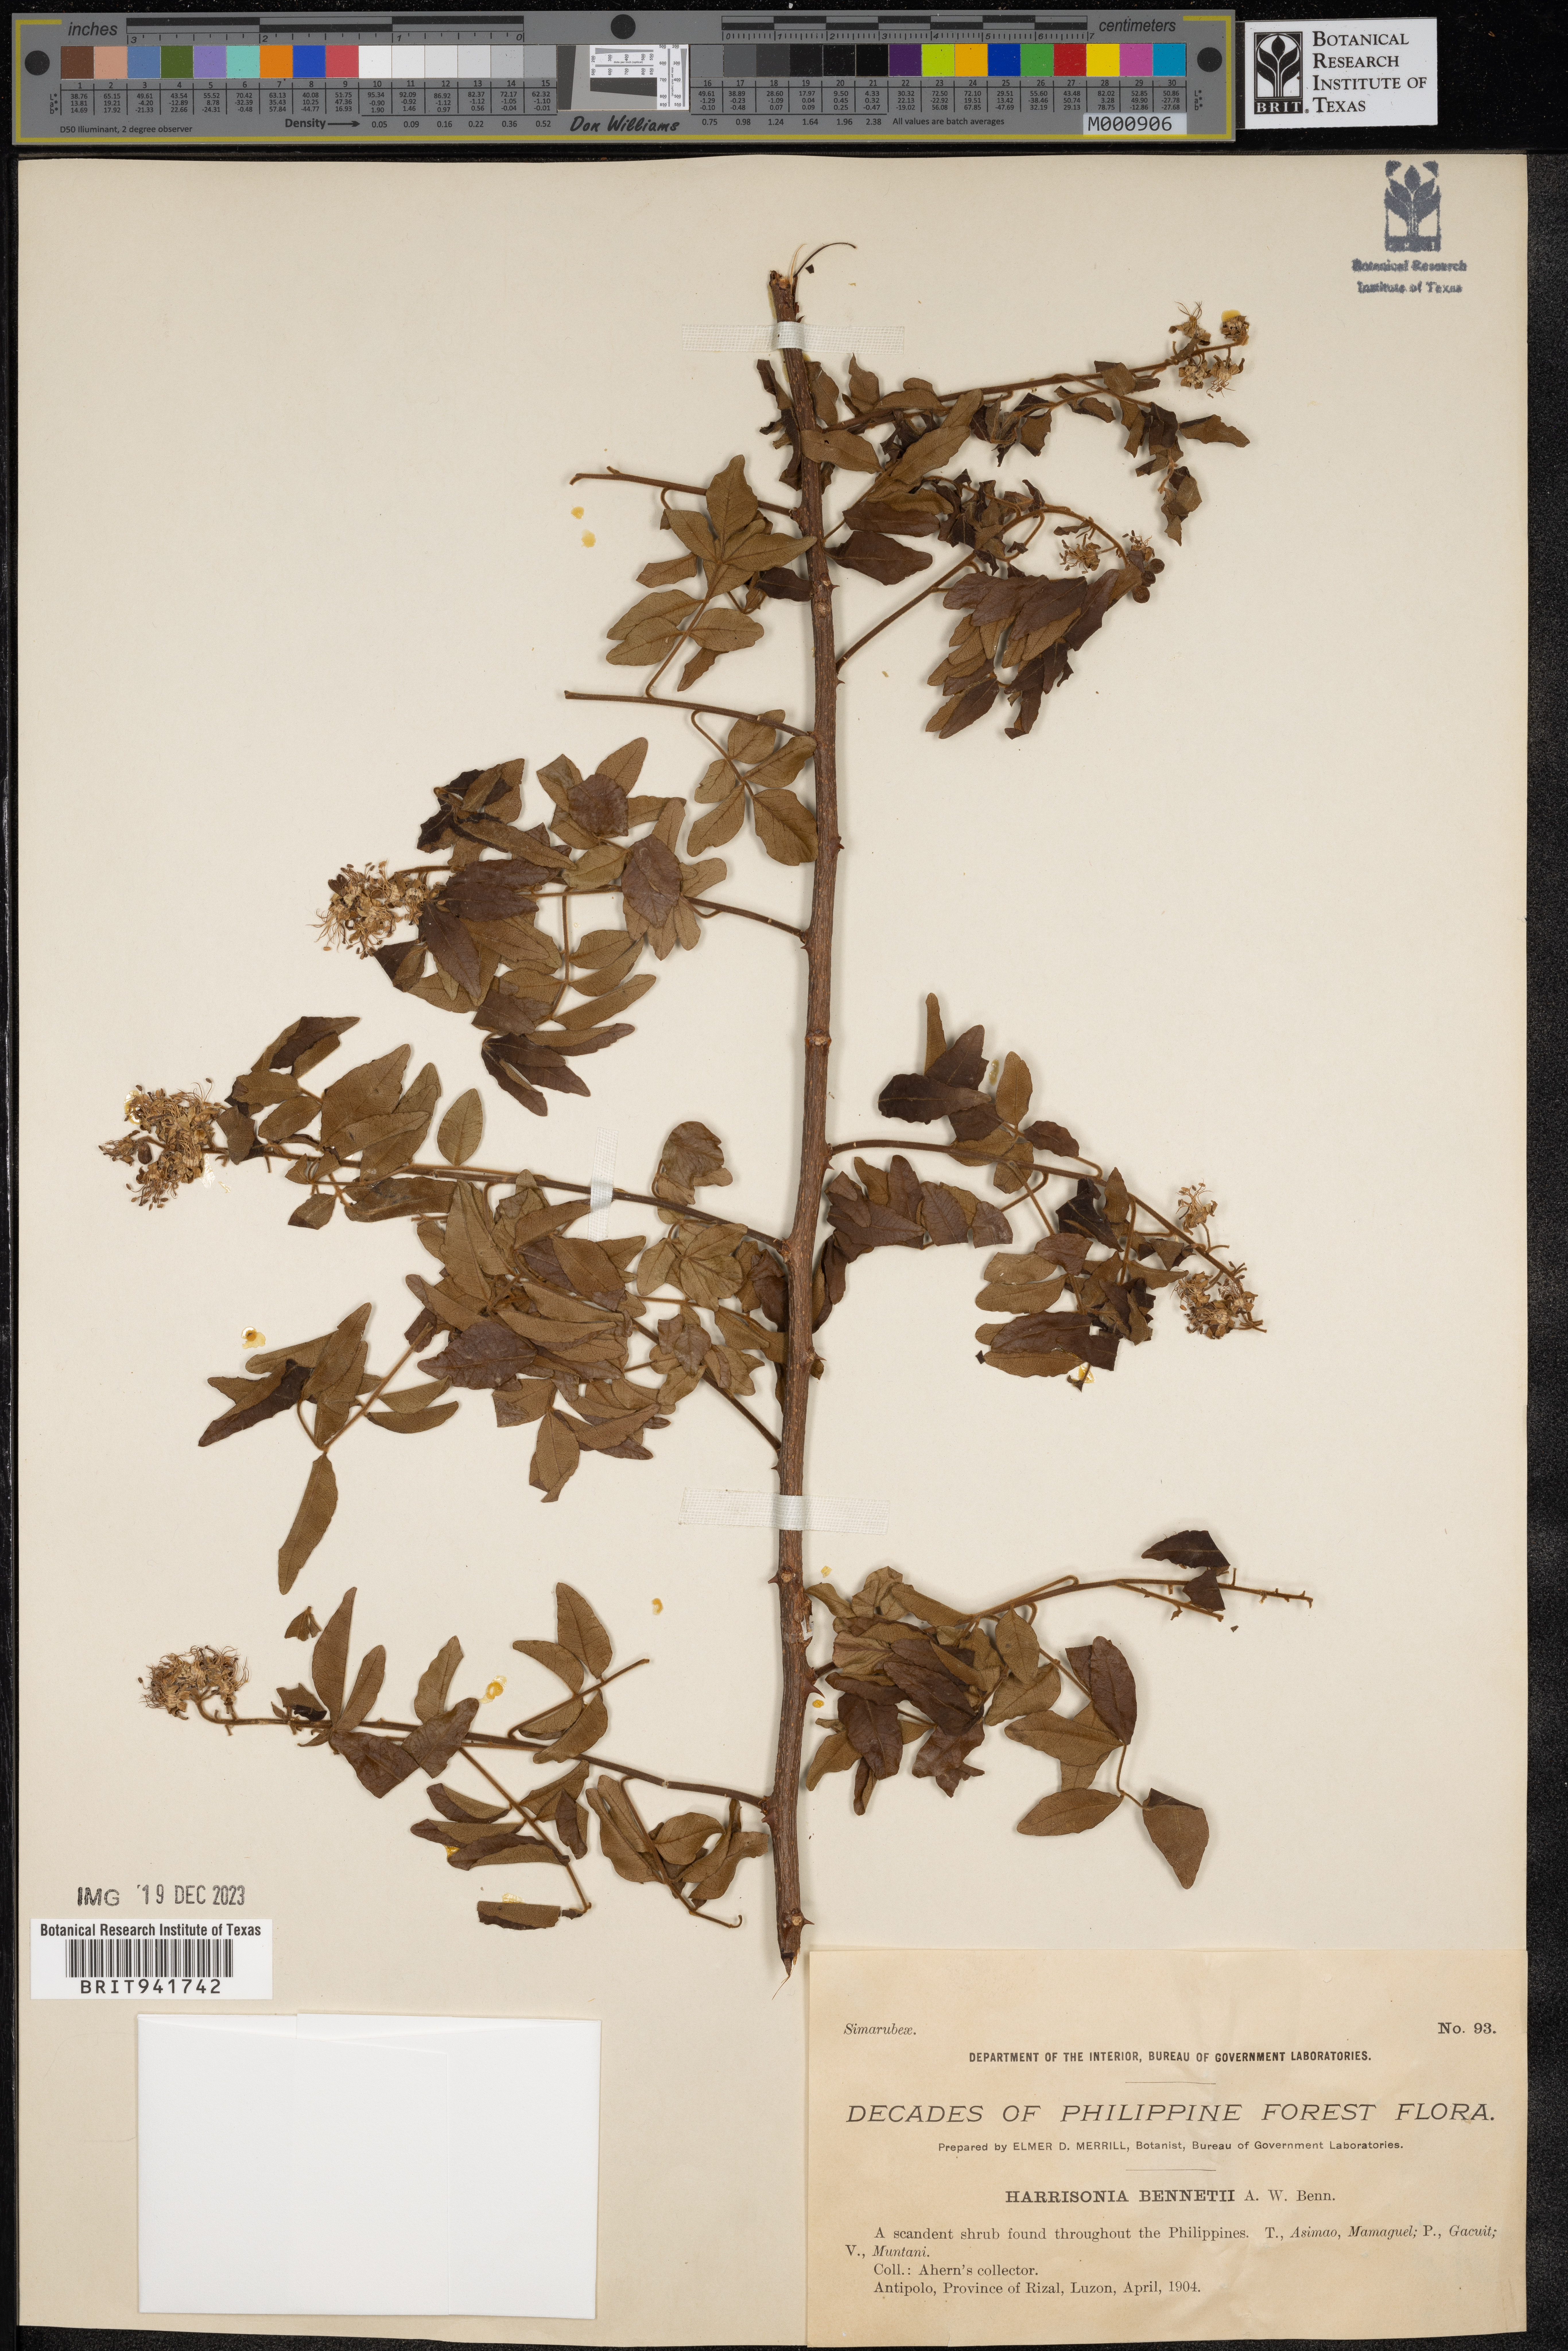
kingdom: Plantae
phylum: Tracheophyta
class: Magnoliopsida
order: Sapindales
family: Rutaceae
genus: Harrisonia
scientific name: Harrisonia
